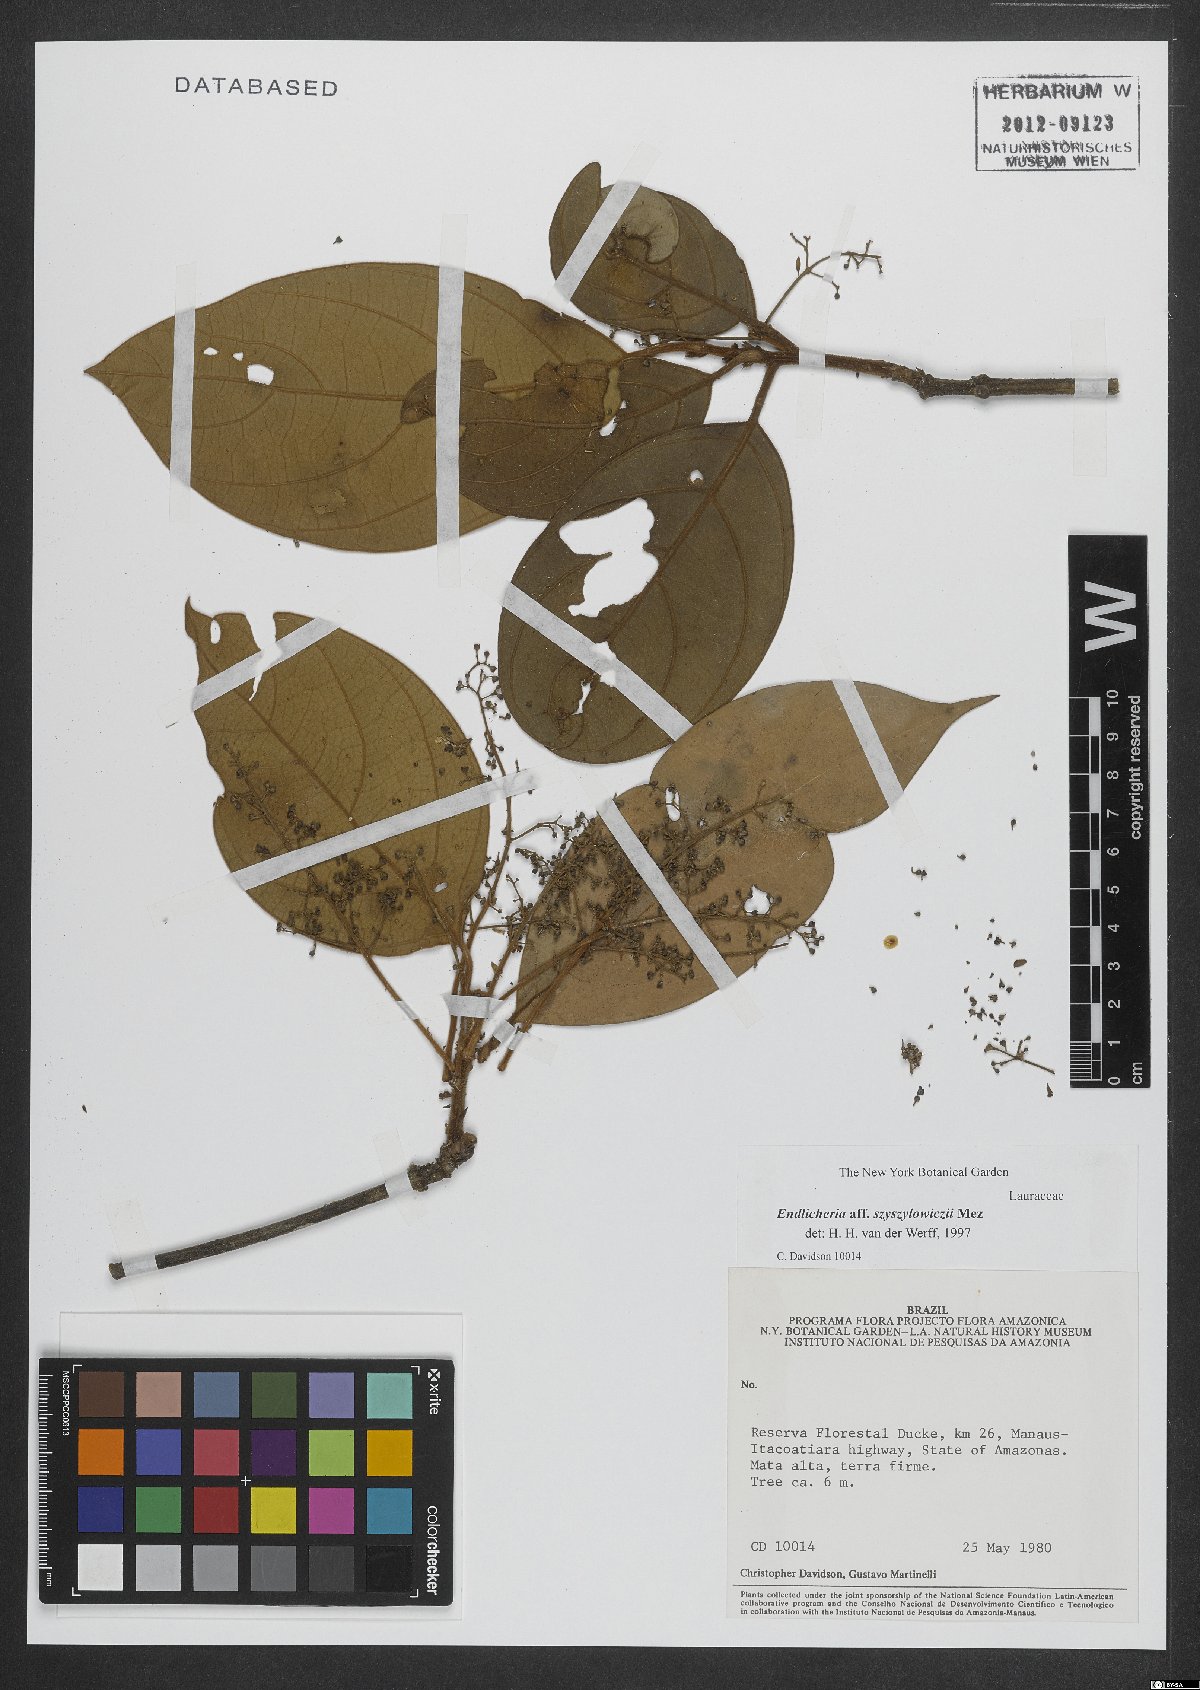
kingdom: Plantae
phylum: Tracheophyta
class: Magnoliopsida
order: Laurales
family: Lauraceae
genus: Endlicheria
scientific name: Endlicheria szyszylowiczii
